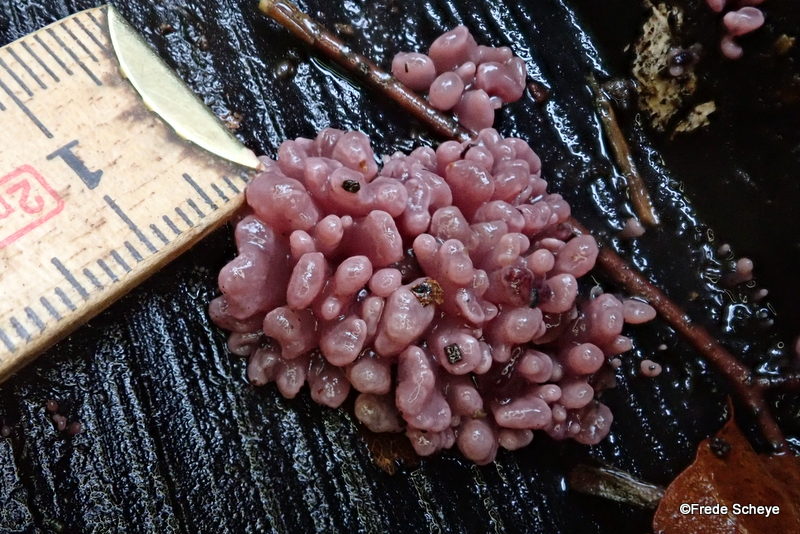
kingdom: Fungi
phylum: Ascomycota
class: Leotiomycetes
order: Helotiales
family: Gelatinodiscaceae
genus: Ascocoryne
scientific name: Ascocoryne sarcoides
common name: rødlilla sejskive
